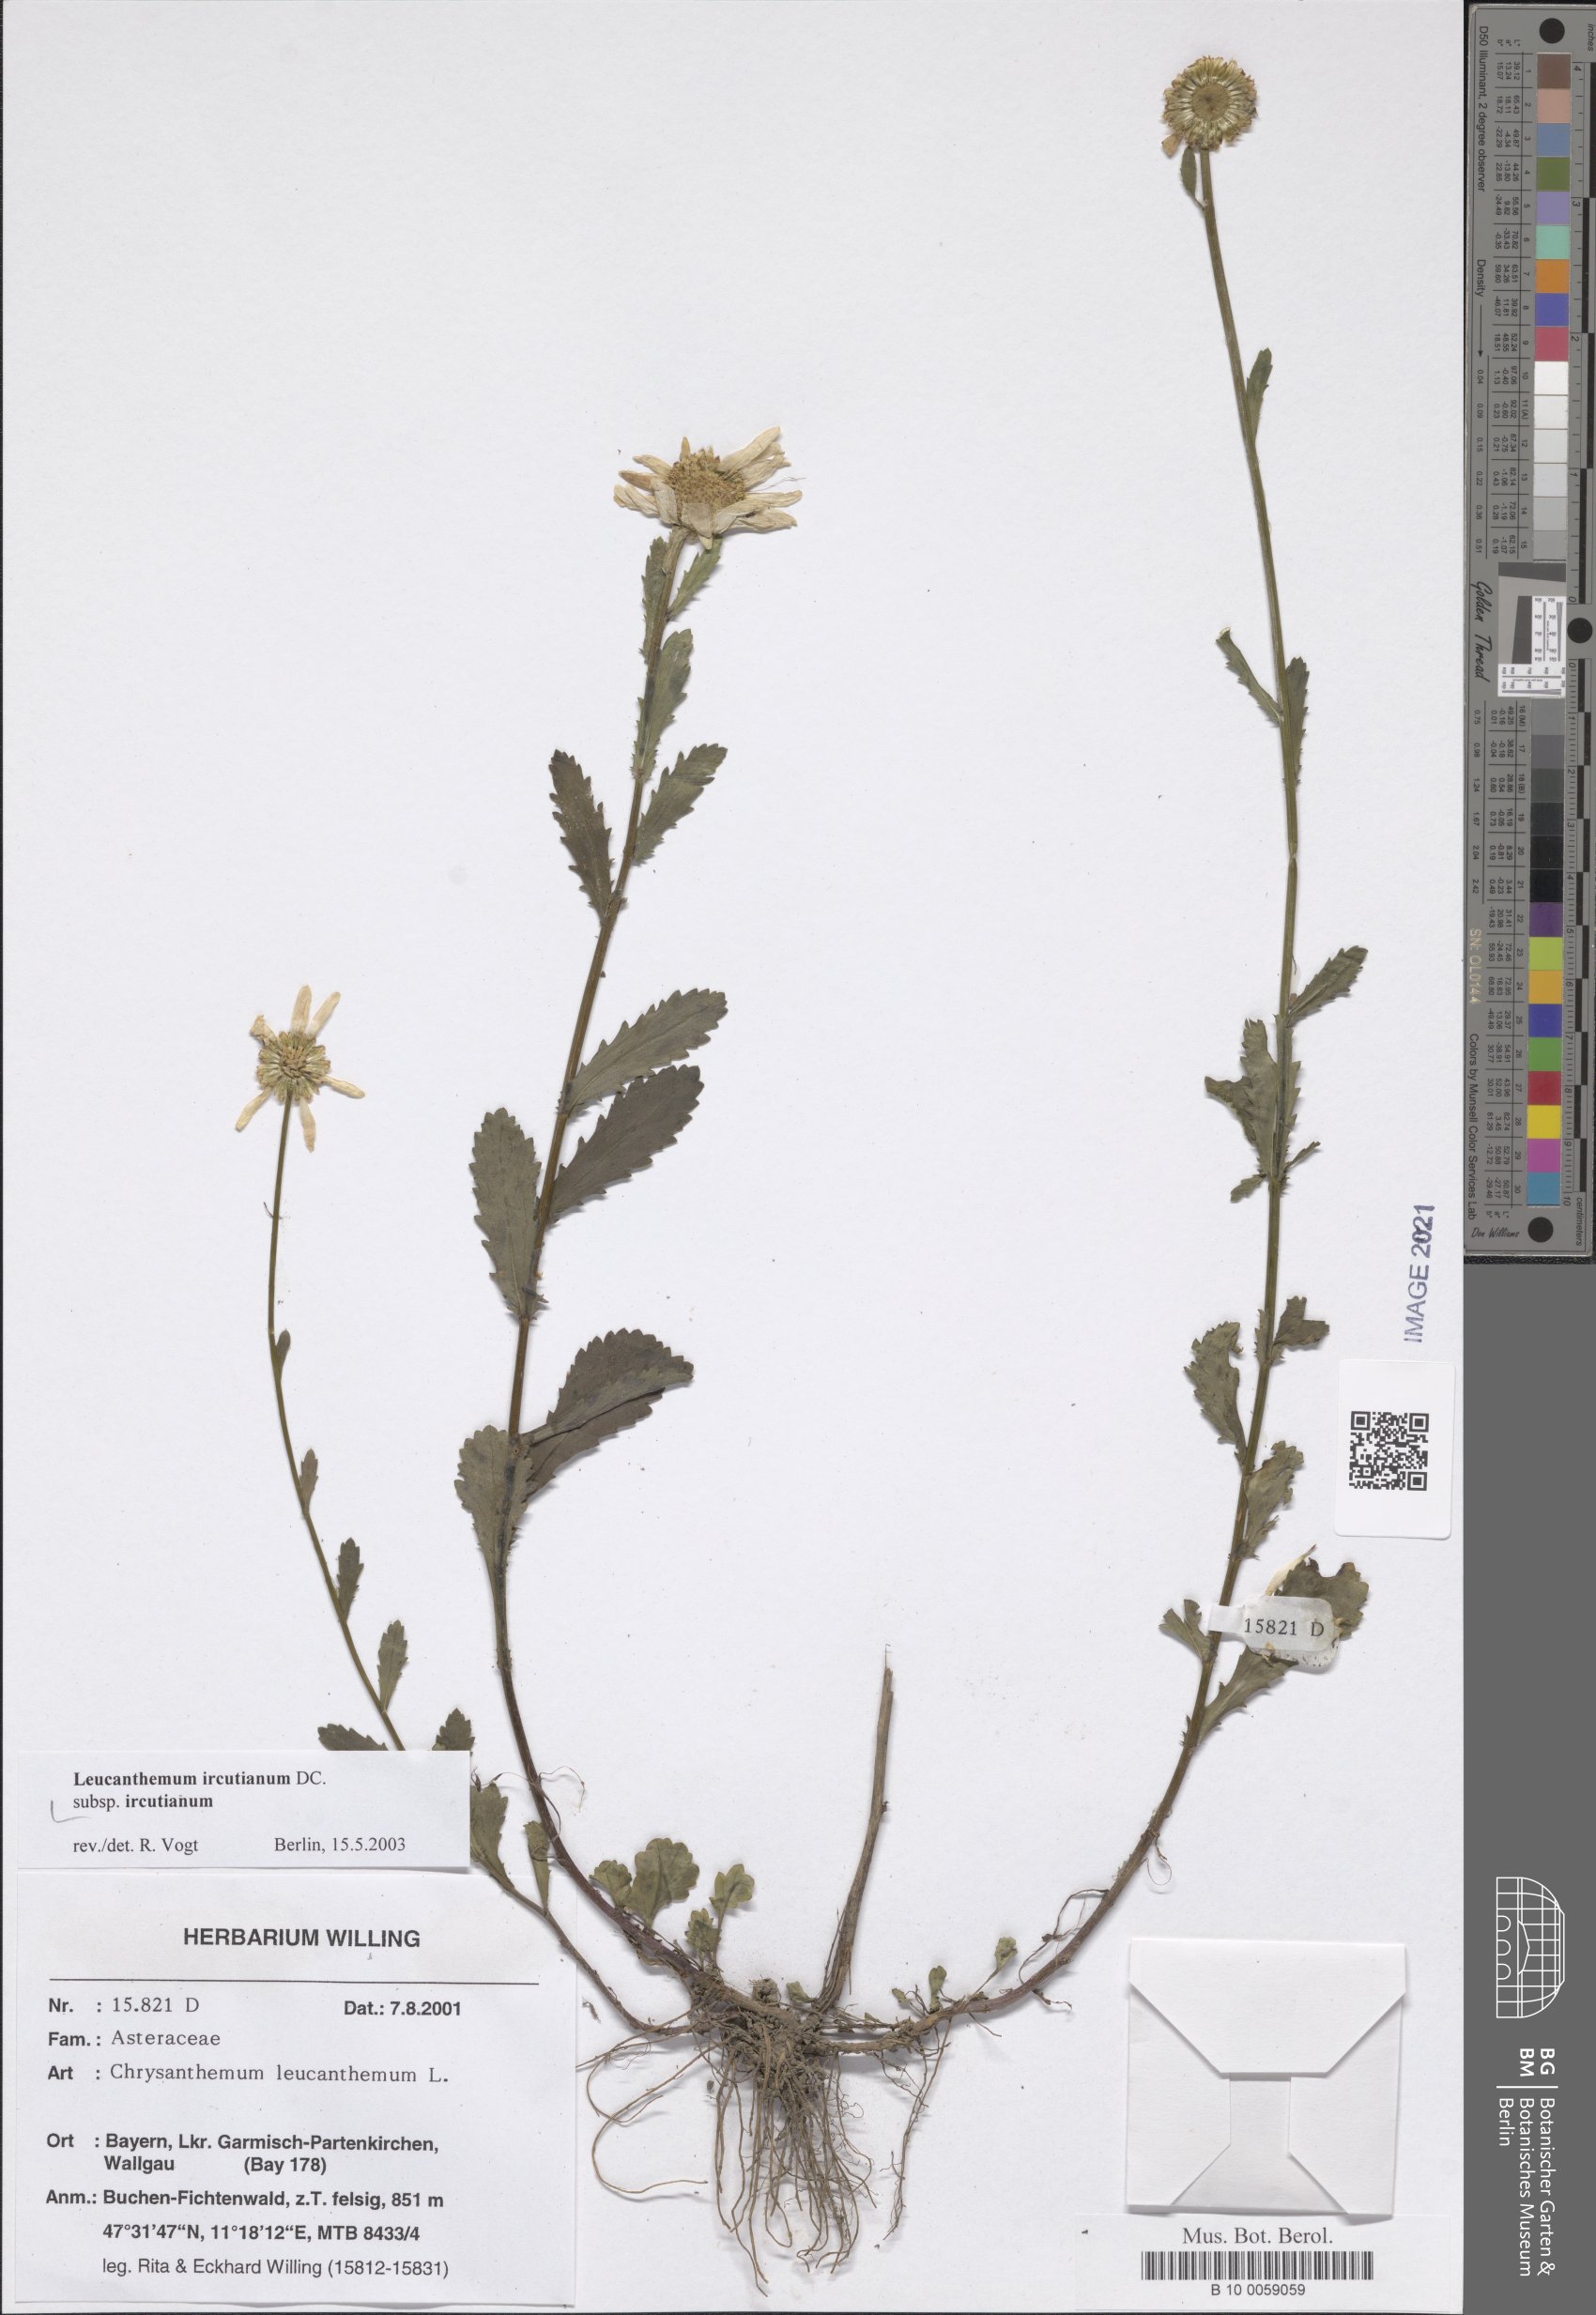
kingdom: Plantae
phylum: Tracheophyta
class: Magnoliopsida
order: Asterales
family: Asteraceae
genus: Leucanthemum
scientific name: Leucanthemum ircutianum
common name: Daisy
